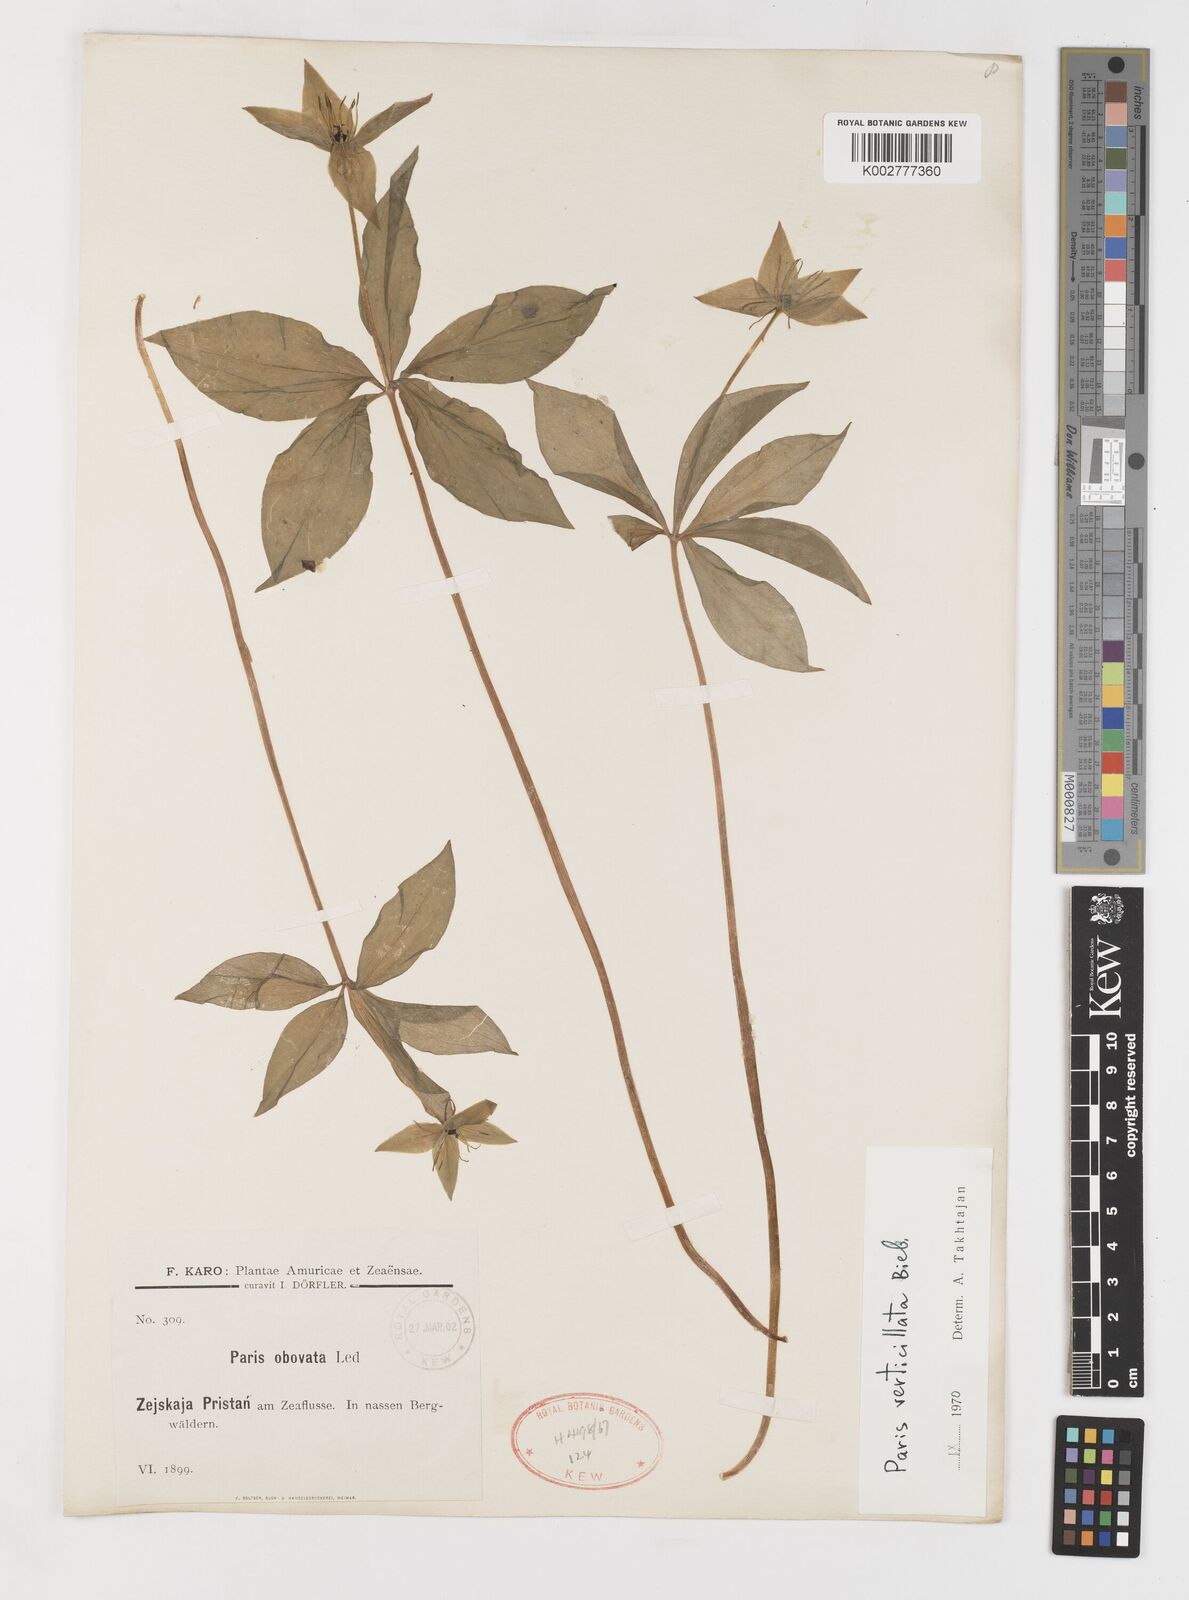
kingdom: Plantae
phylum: Tracheophyta
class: Liliopsida
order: Liliales
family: Melanthiaceae
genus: Paris
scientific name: Paris verticillata
